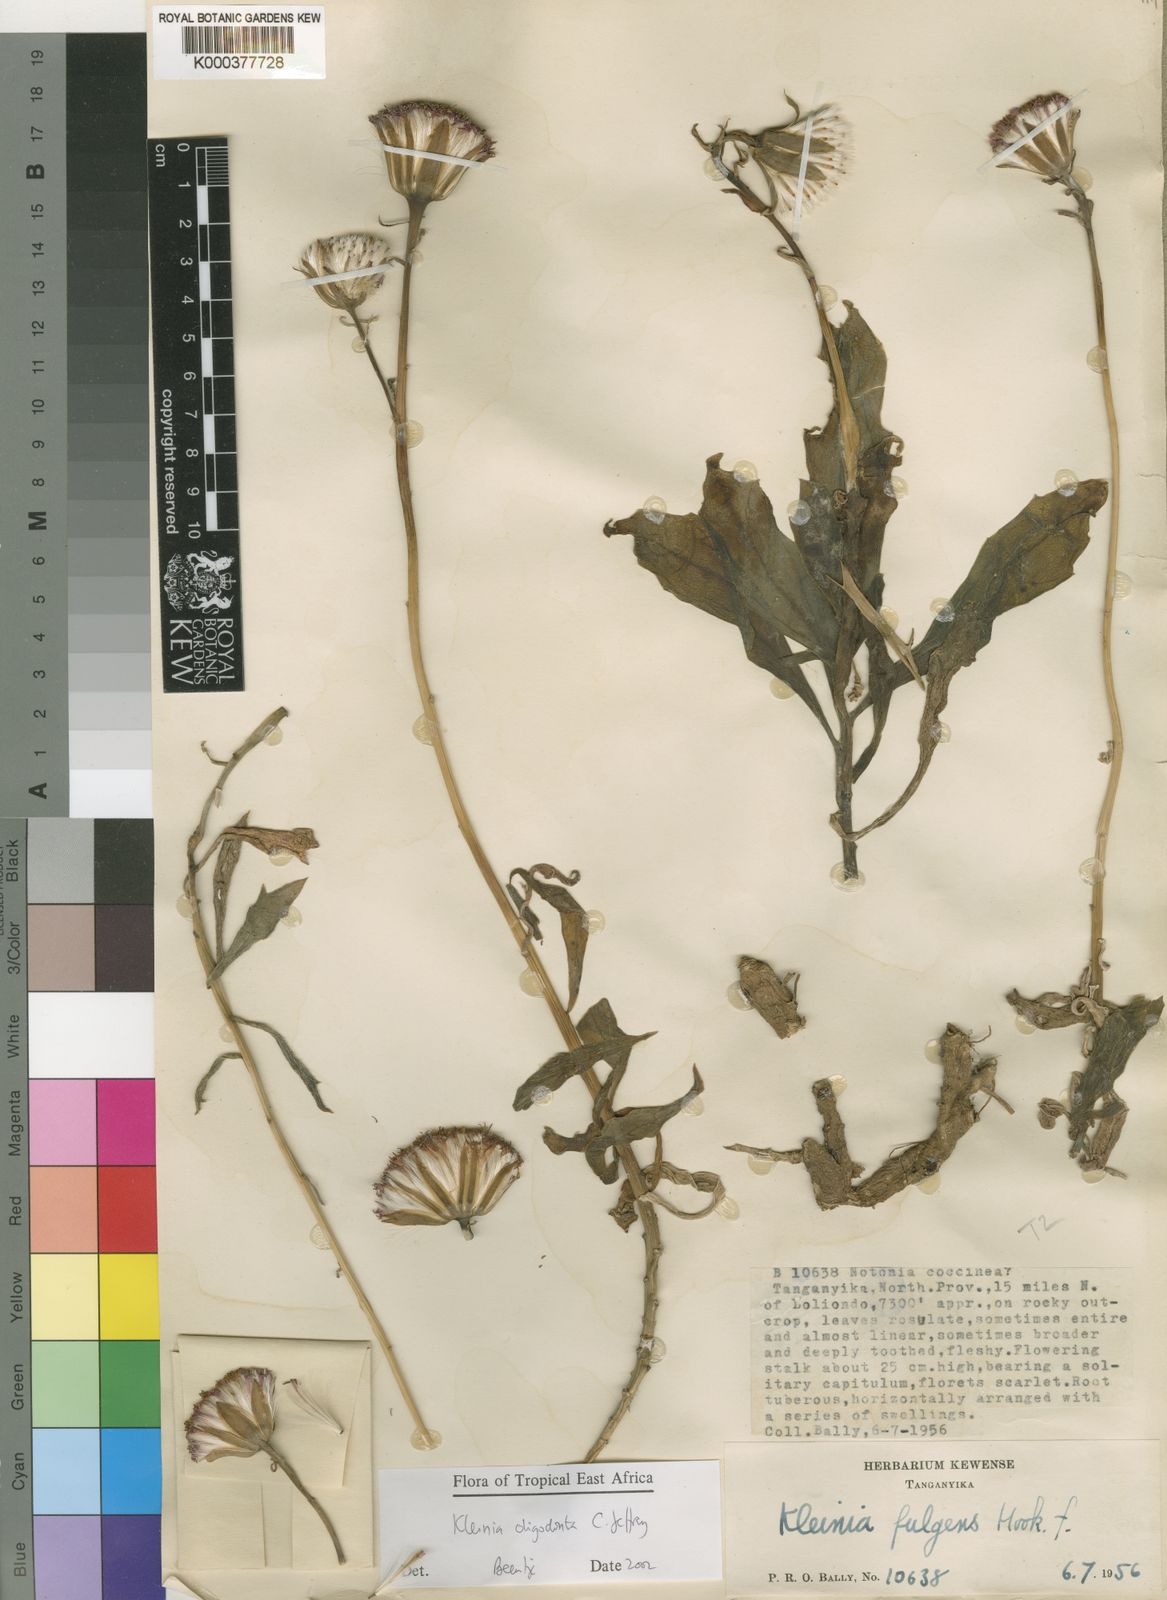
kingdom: Plantae
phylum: Tracheophyta
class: Magnoliopsida
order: Asterales
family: Asteraceae
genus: Kleinia
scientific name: Kleinia oligodonta
